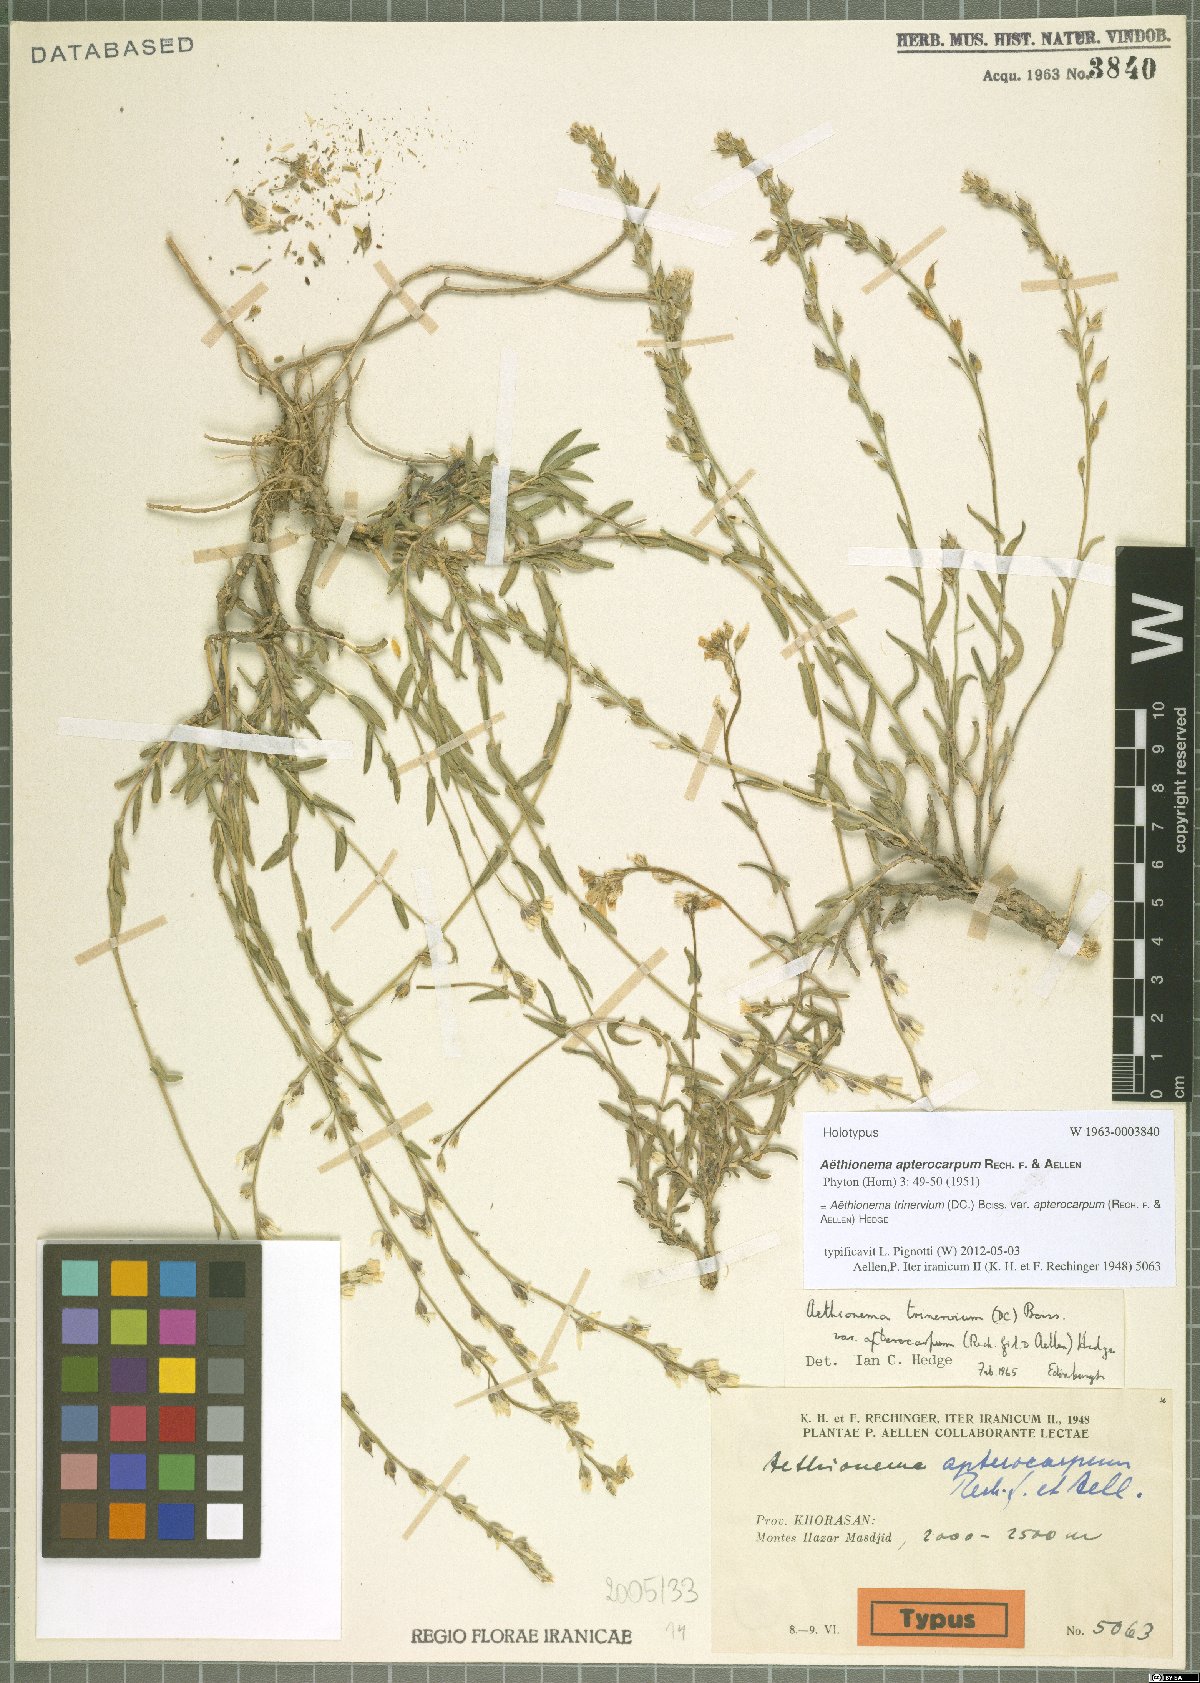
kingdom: Plantae
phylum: Tracheophyta
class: Magnoliopsida
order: Brassicales
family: Brassicaceae
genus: Noccaea
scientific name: Noccaea trinervia
